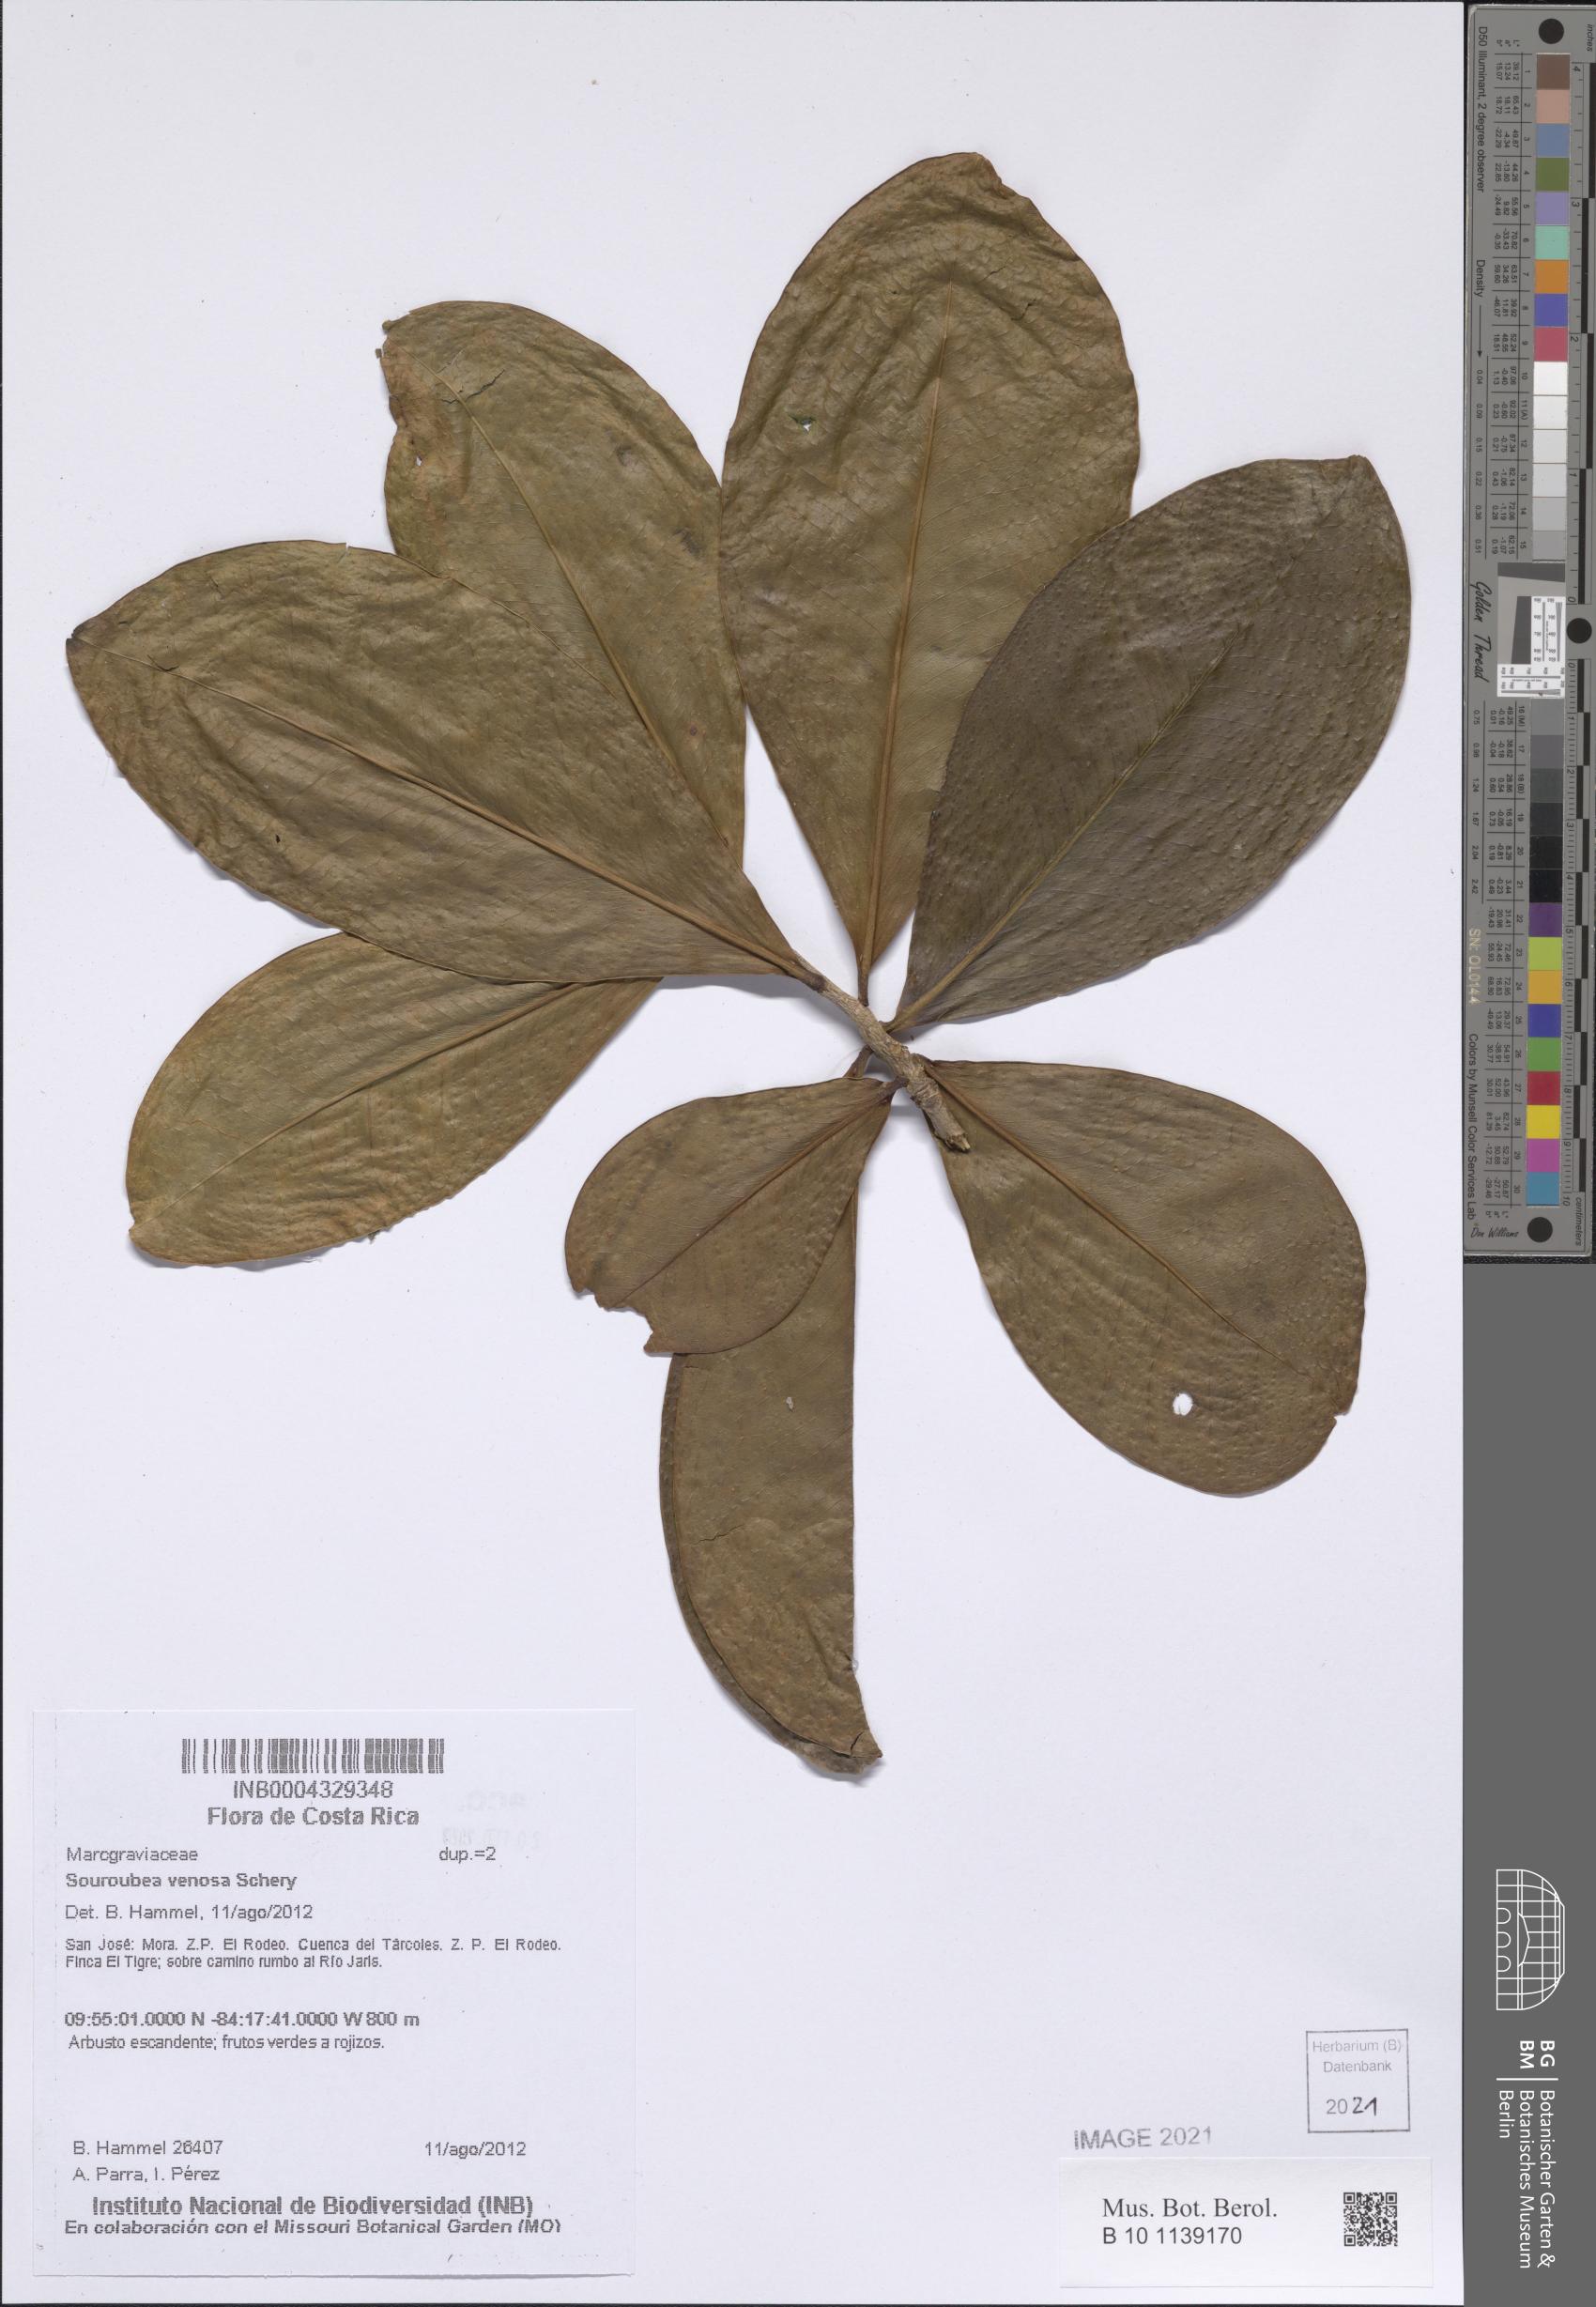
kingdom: Plantae
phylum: Tracheophyta
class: Magnoliopsida
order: Ericales
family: Marcgraviaceae
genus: Souroubea
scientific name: Souroubea venosa
